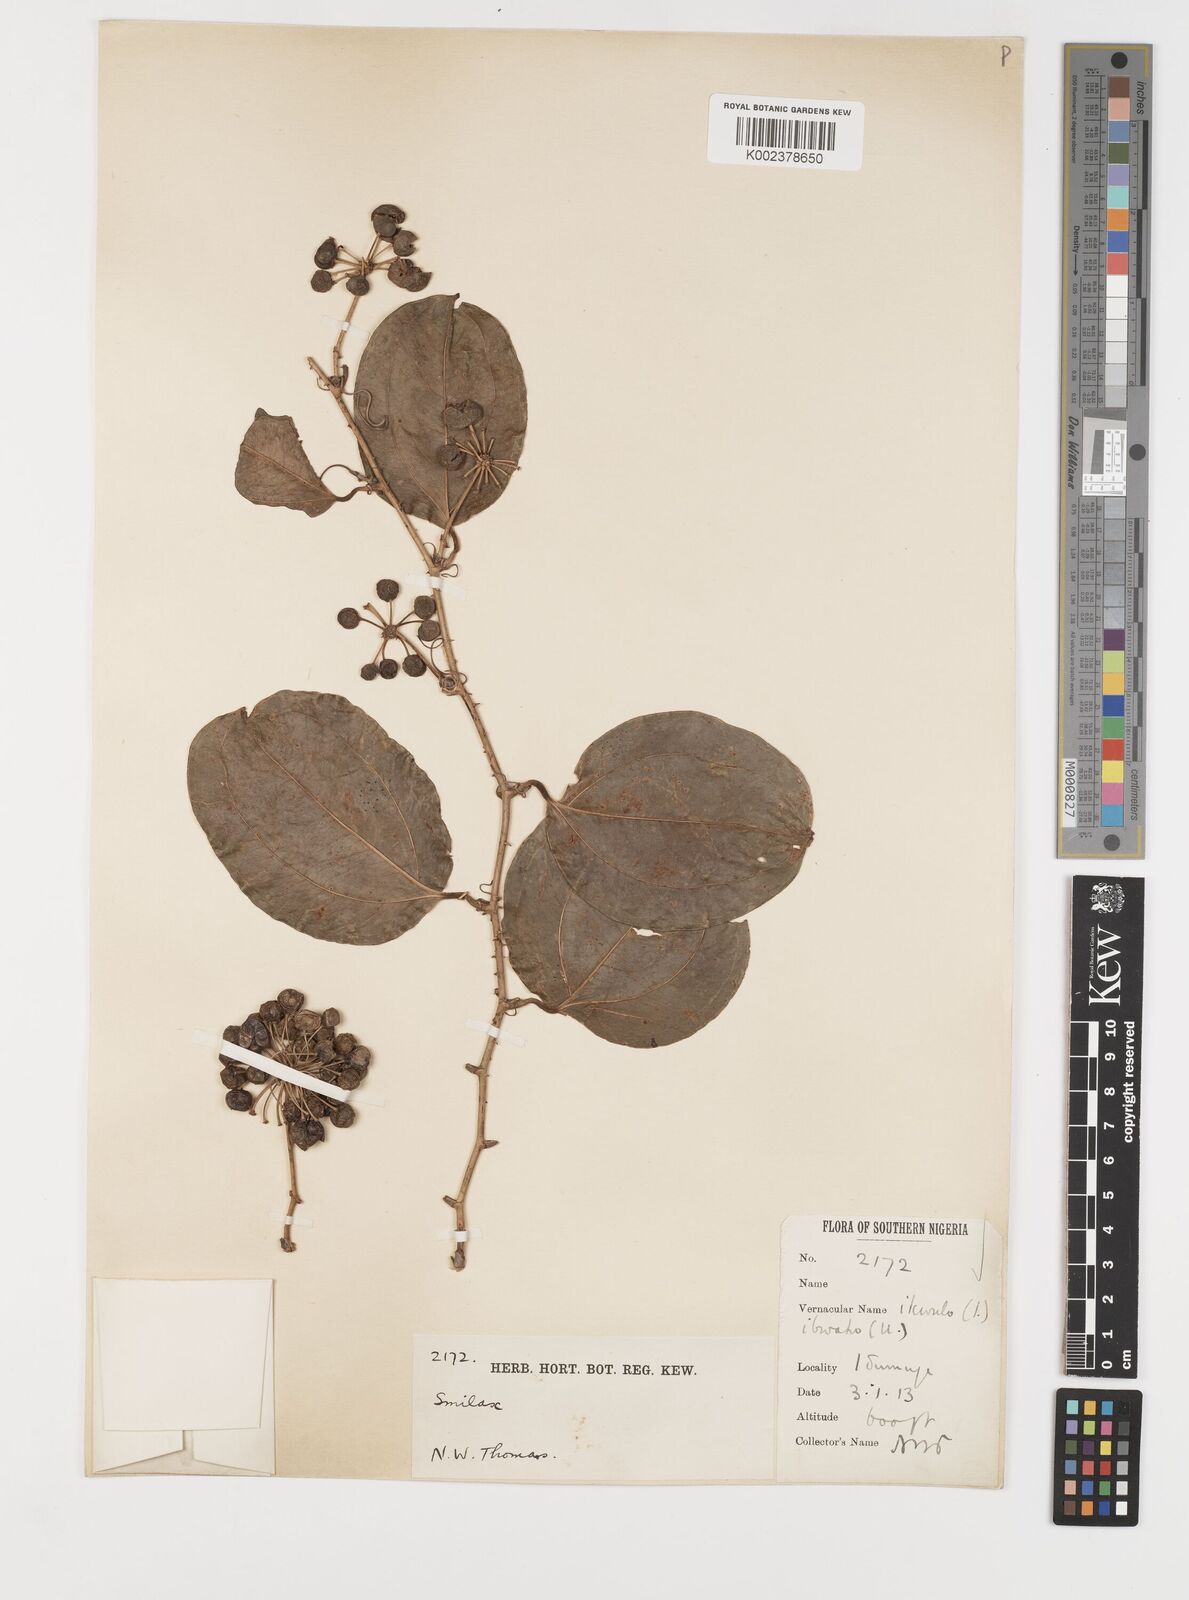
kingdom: Plantae
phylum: Tracheophyta
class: Liliopsida
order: Liliales
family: Smilacaceae
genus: Smilax
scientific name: Smilax anceps
